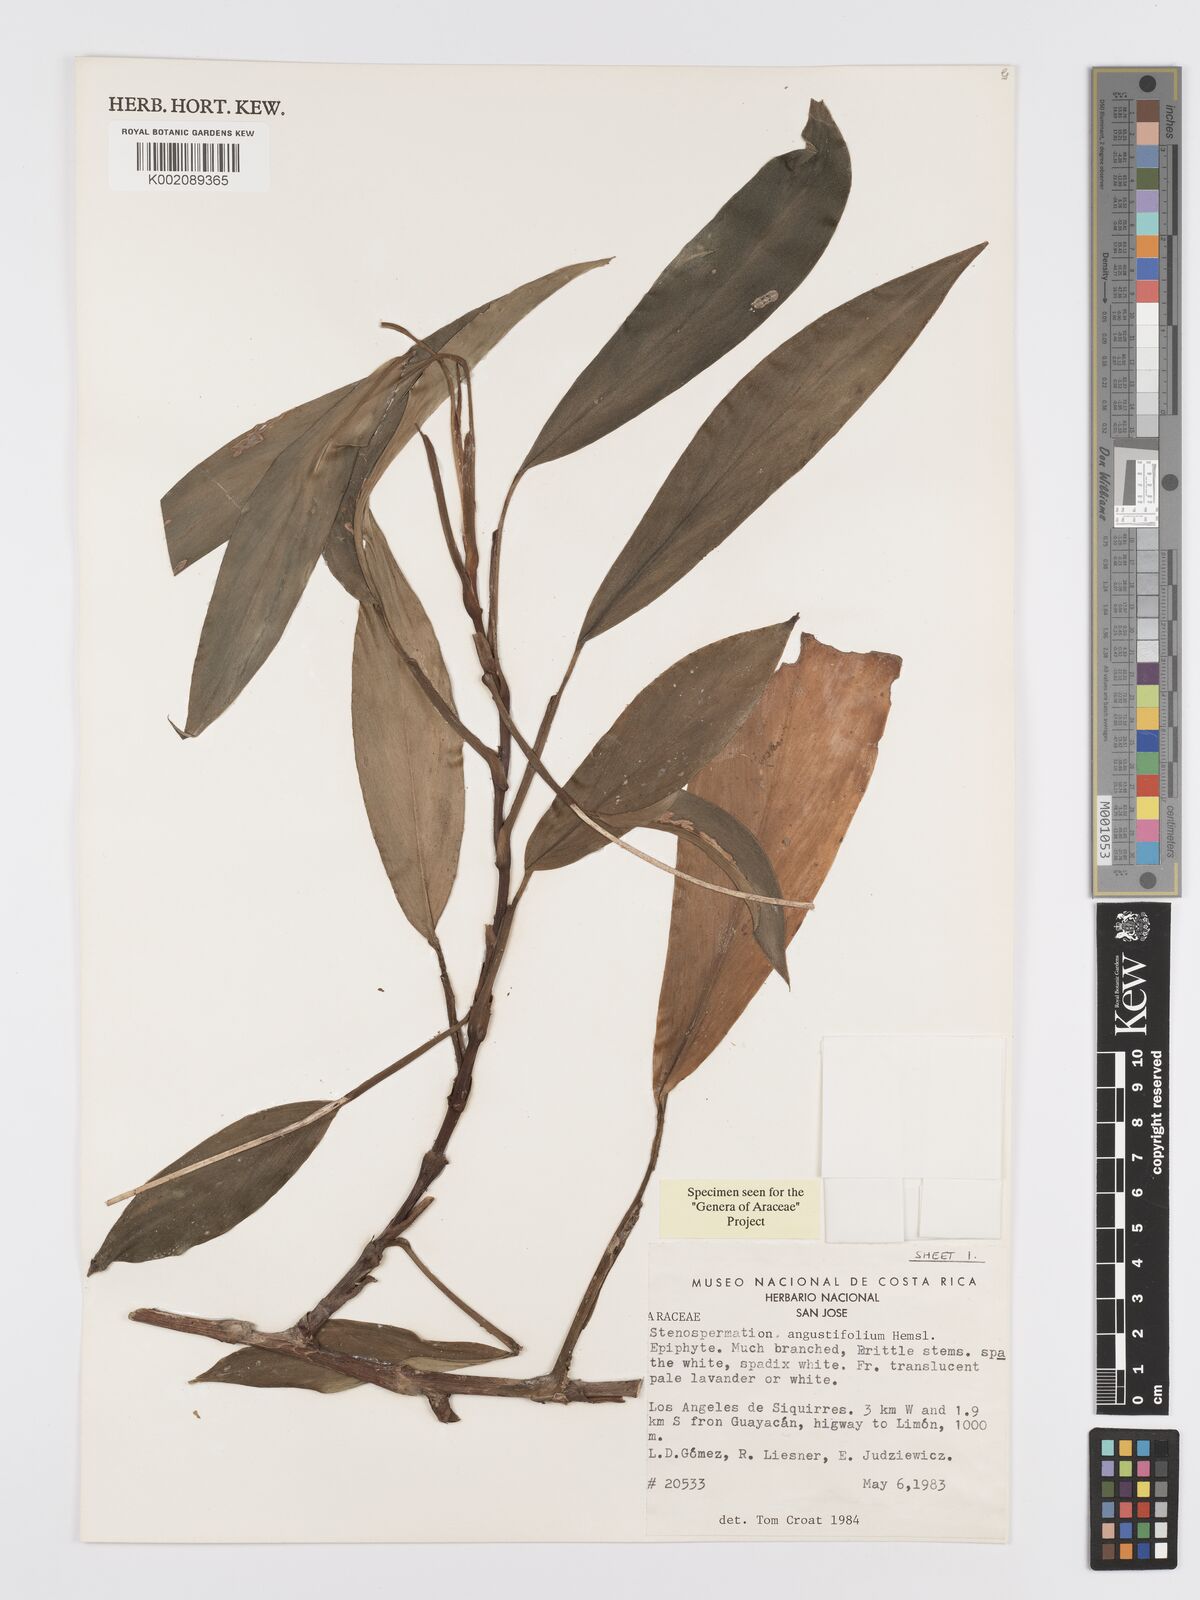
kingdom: Plantae
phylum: Tracheophyta
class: Liliopsida
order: Alismatales
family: Araceae
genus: Stenospermation
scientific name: Stenospermation angustifolium
